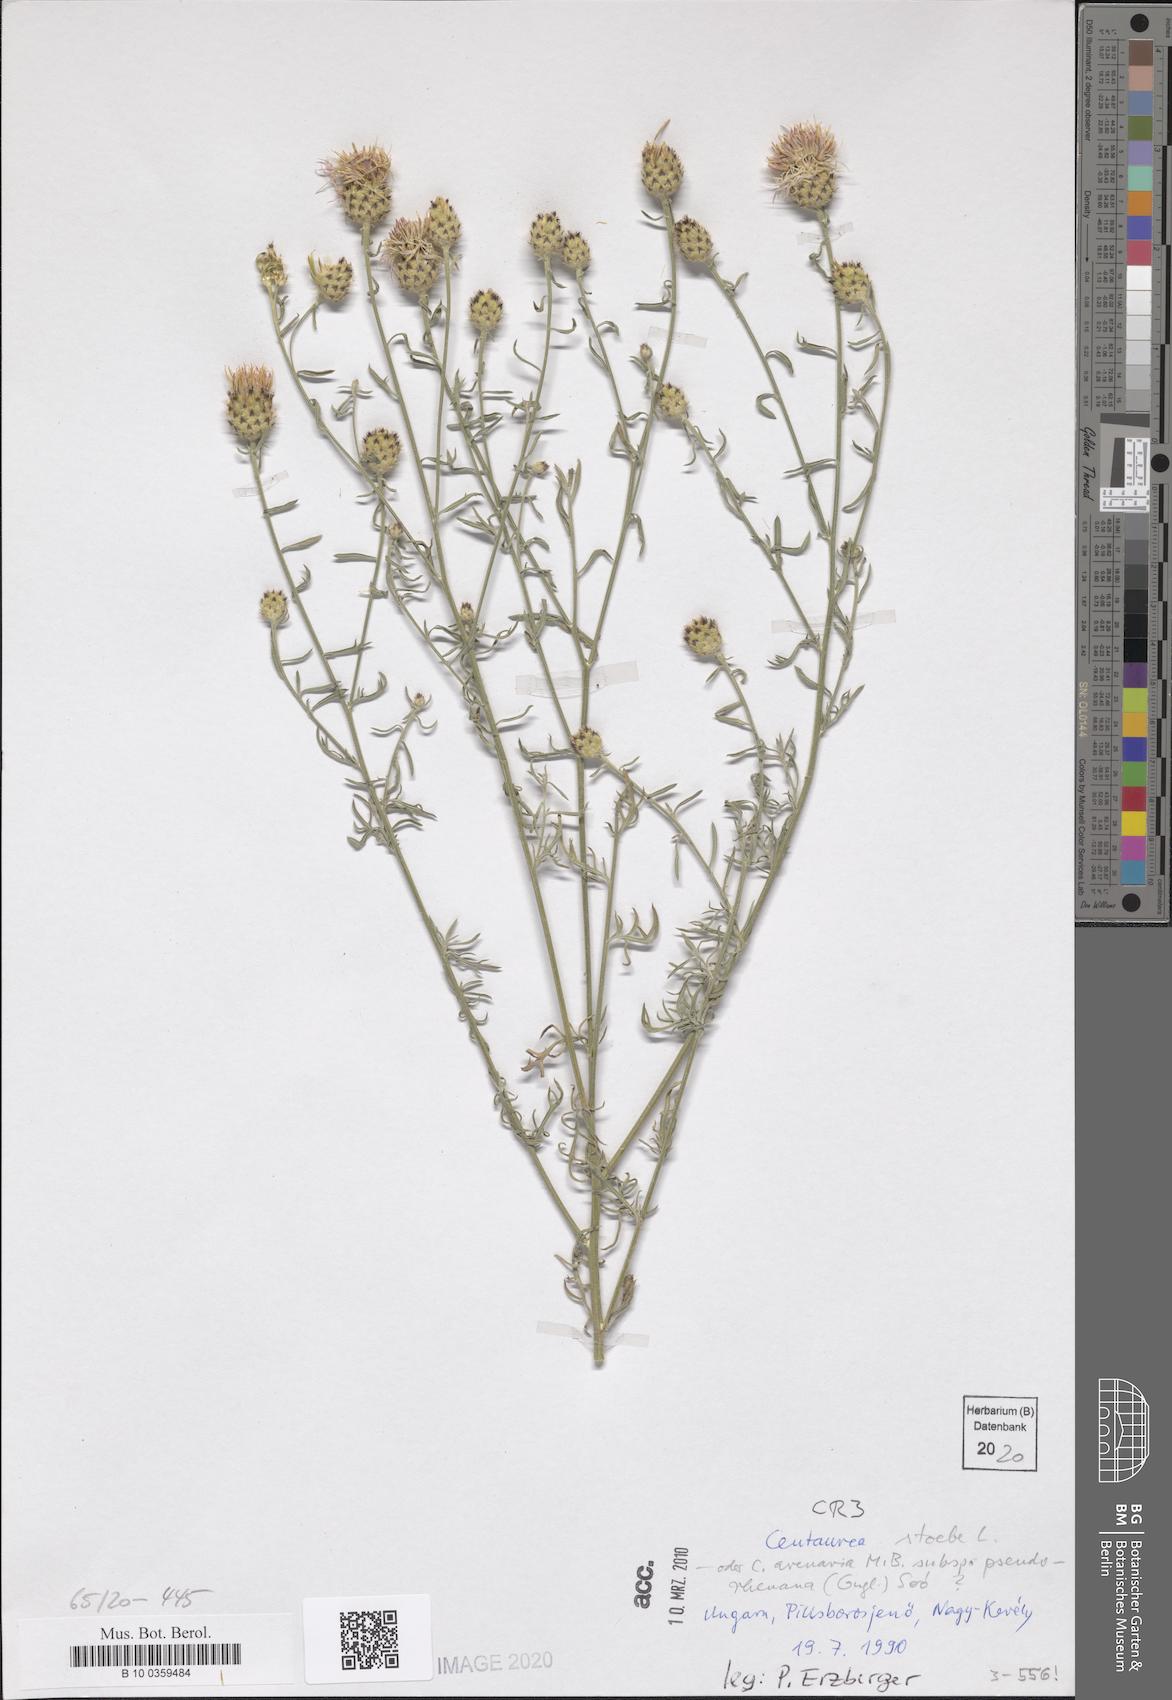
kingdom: Plantae
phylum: Tracheophyta
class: Magnoliopsida
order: Asterales
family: Asteraceae
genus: Centaurea
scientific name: Centaurea stoebe
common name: Spotted knapweed
